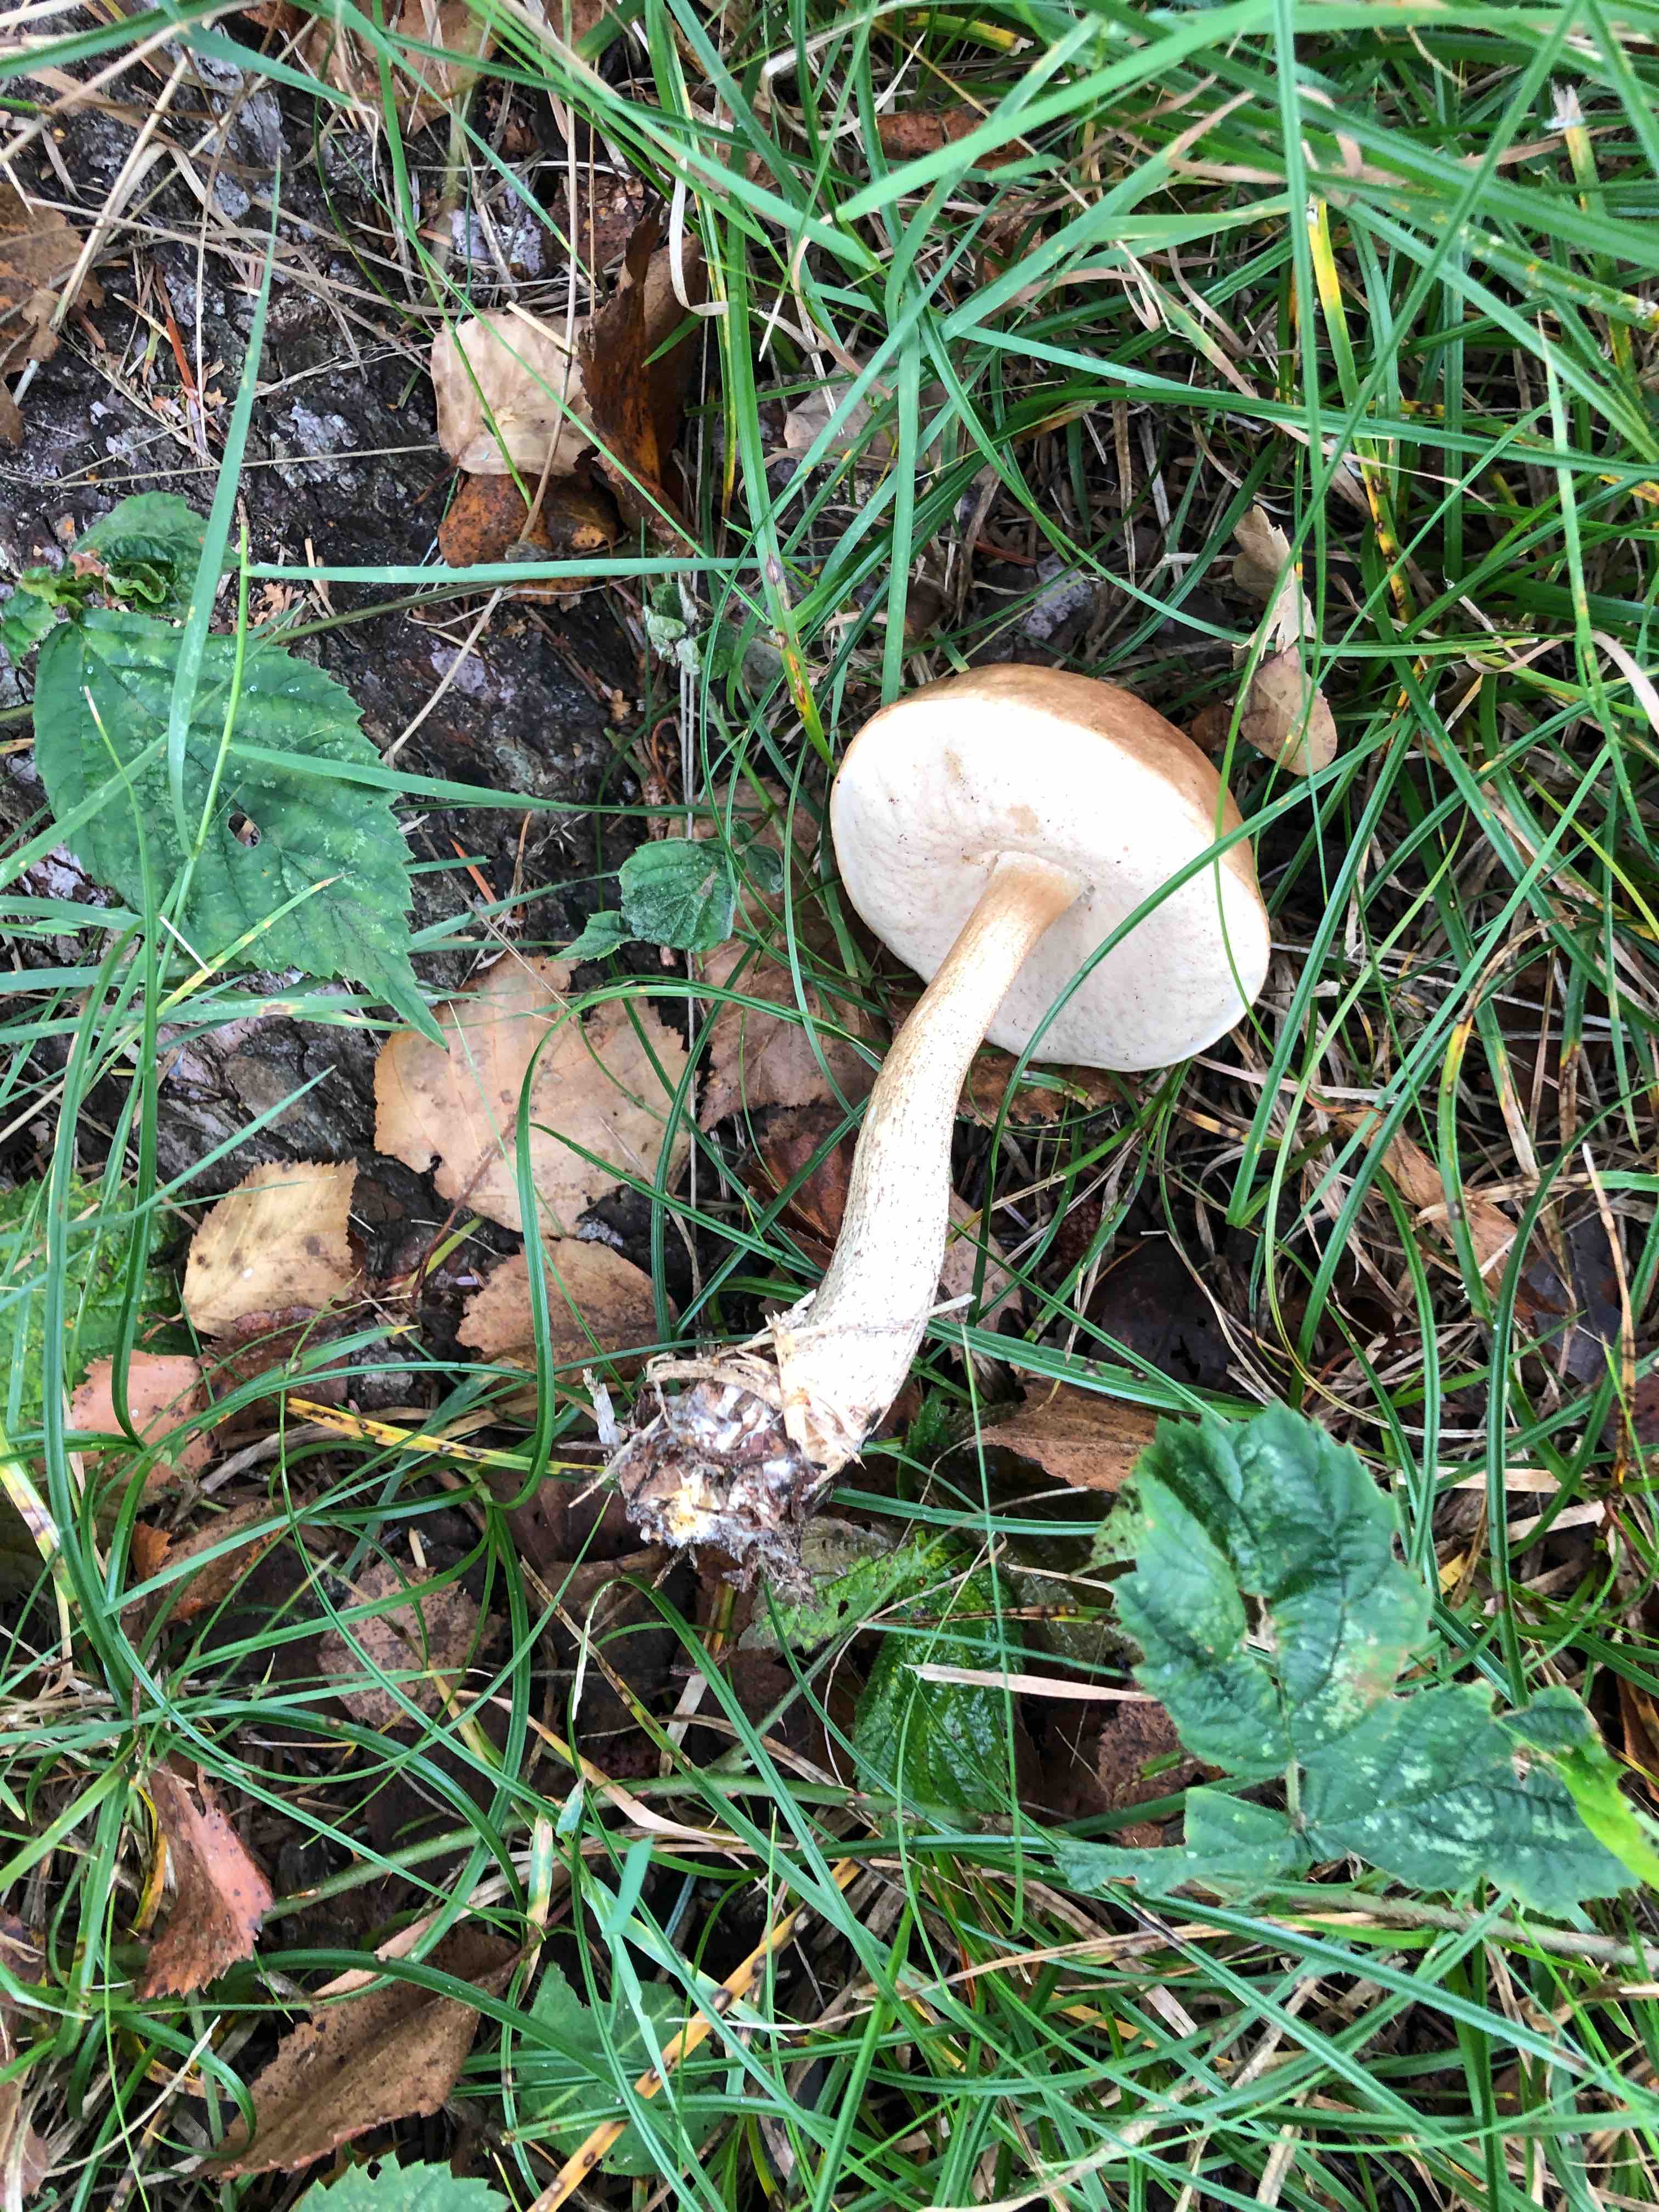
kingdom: Fungi
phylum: Basidiomycota
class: Agaricomycetes
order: Boletales
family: Boletaceae
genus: Leccinum
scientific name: Leccinum
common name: skælrørhat
